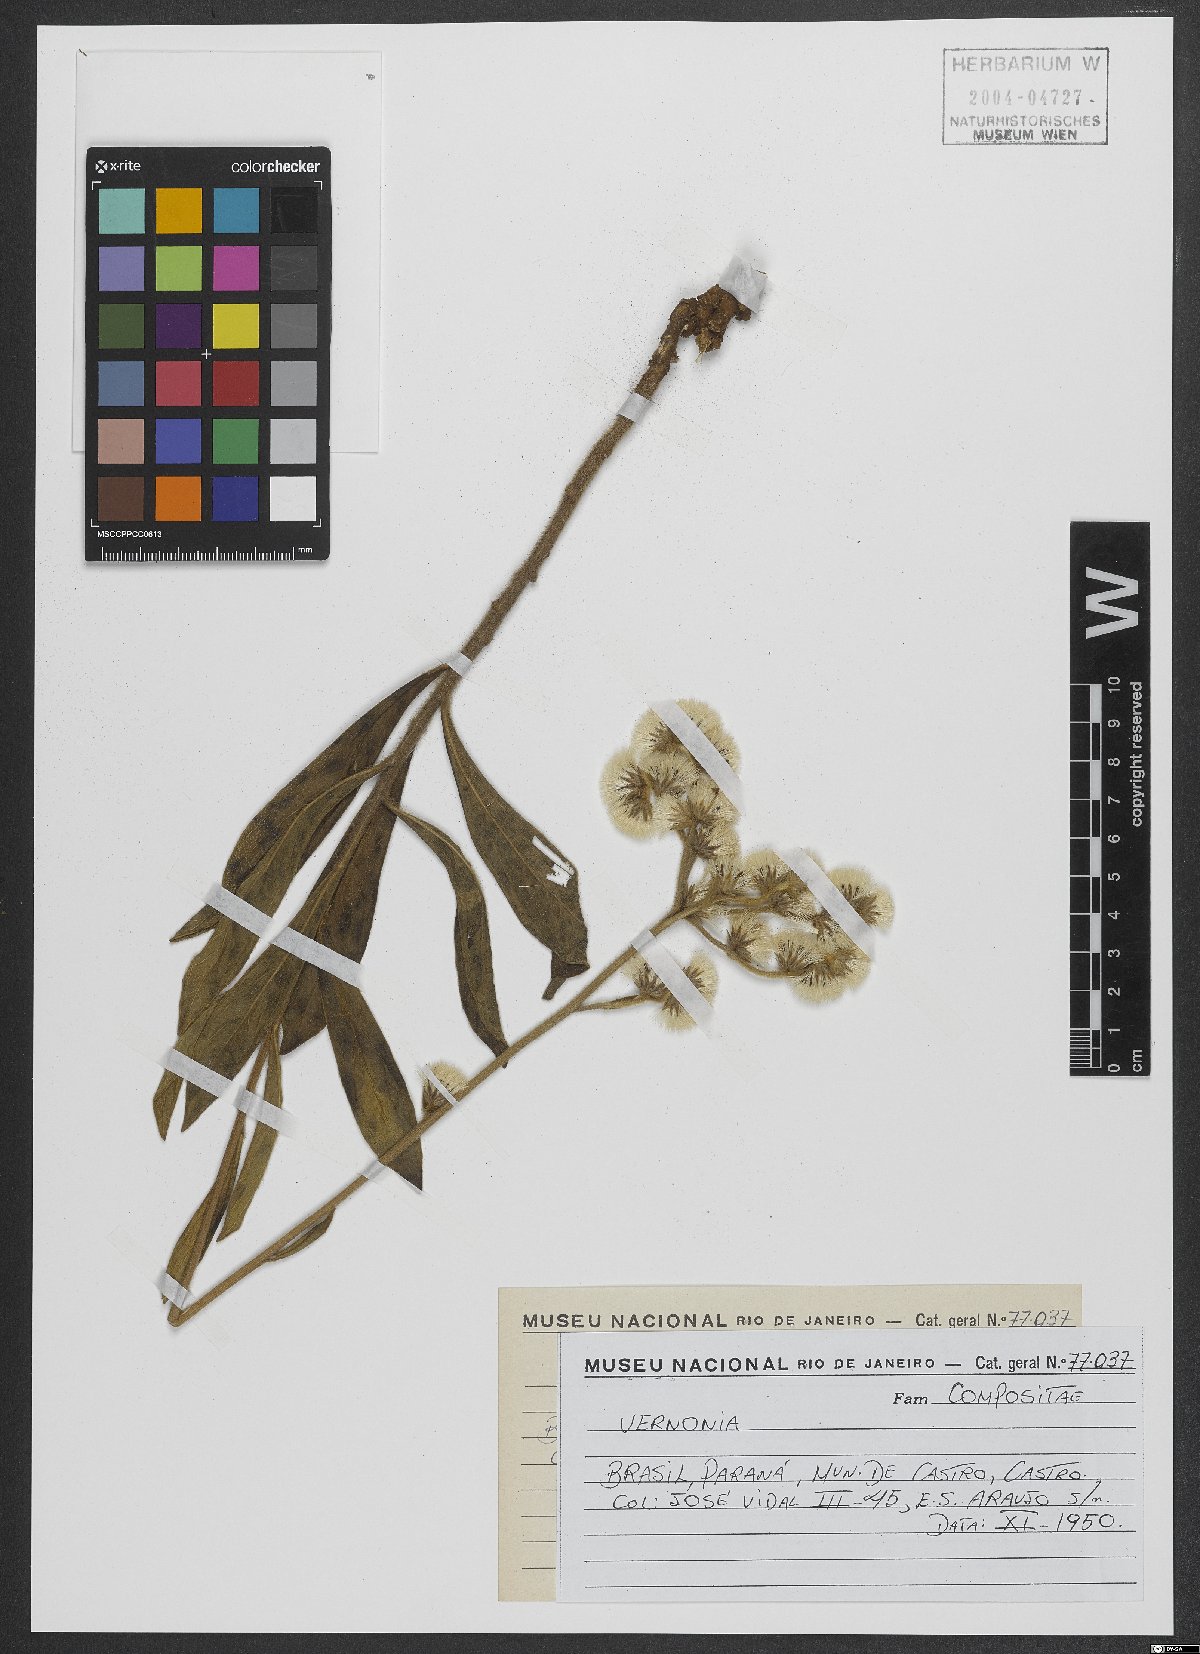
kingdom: Plantae
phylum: Tracheophyta
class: Magnoliopsida
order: Asterales
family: Asteraceae
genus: Vernonia
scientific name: Vernonia
